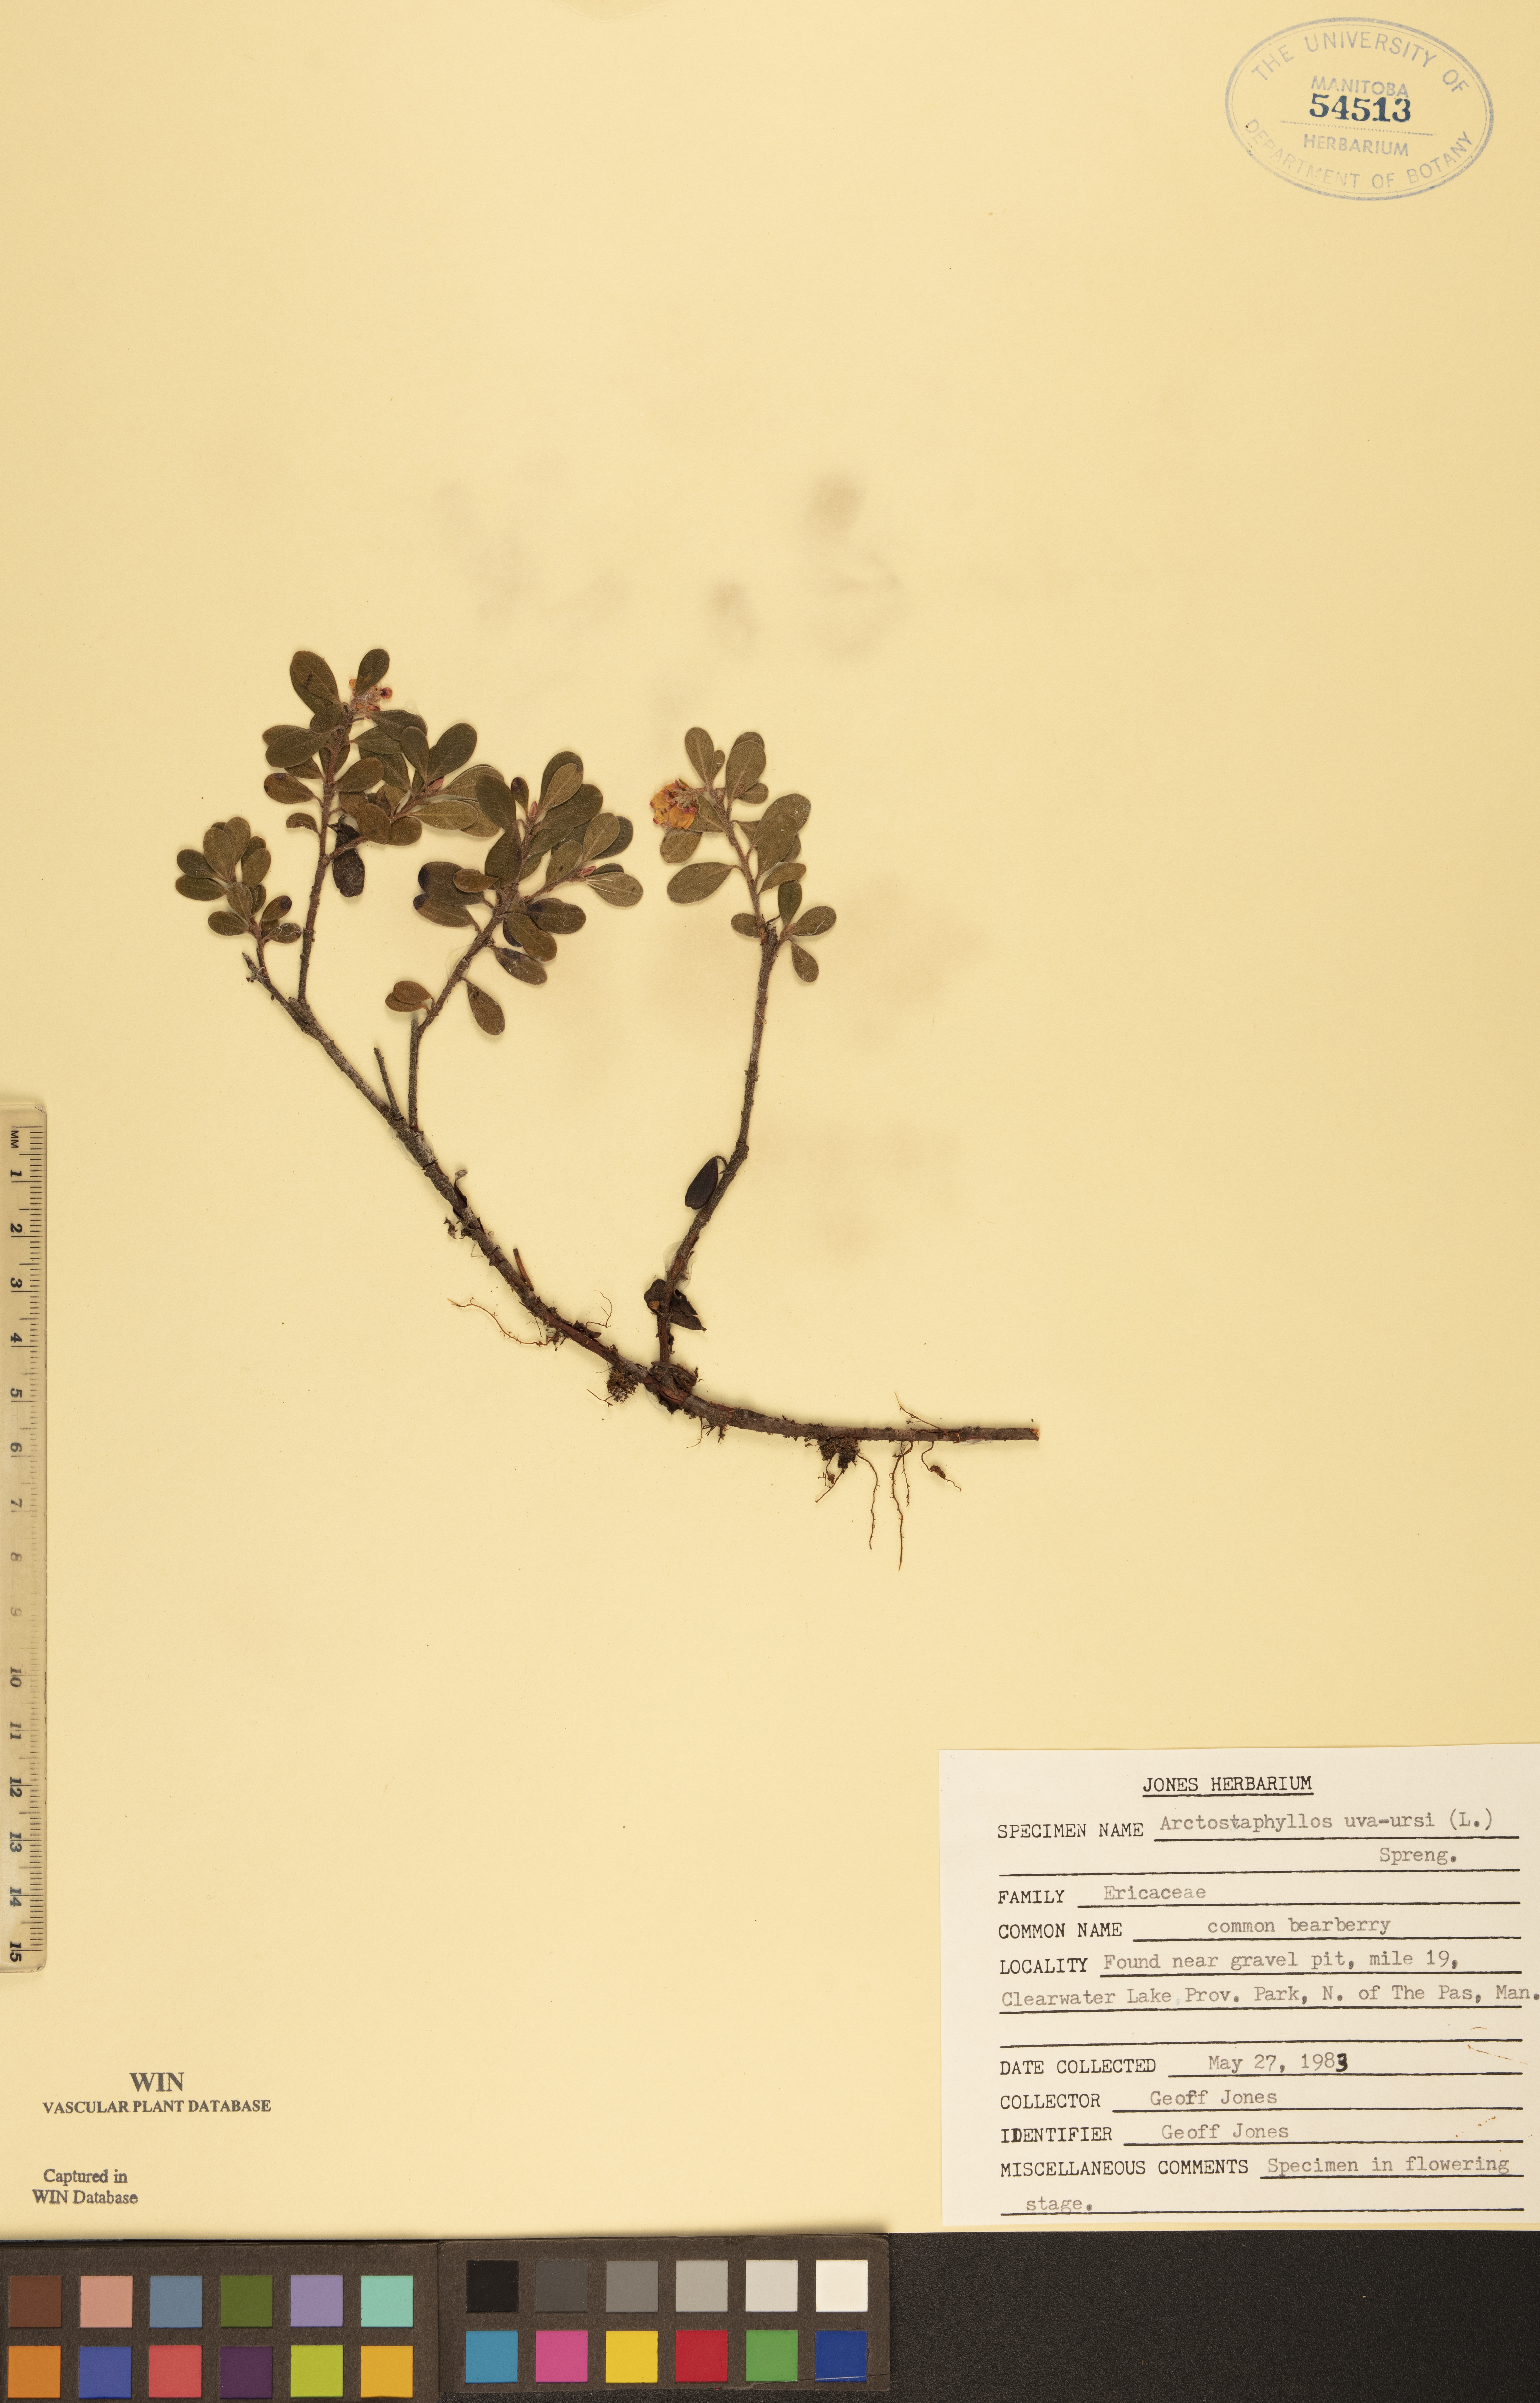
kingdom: Plantae
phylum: Tracheophyta
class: Magnoliopsida
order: Ericales
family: Ericaceae
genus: Arctostaphylos
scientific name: Arctostaphylos uva-ursi
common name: Bearberry
